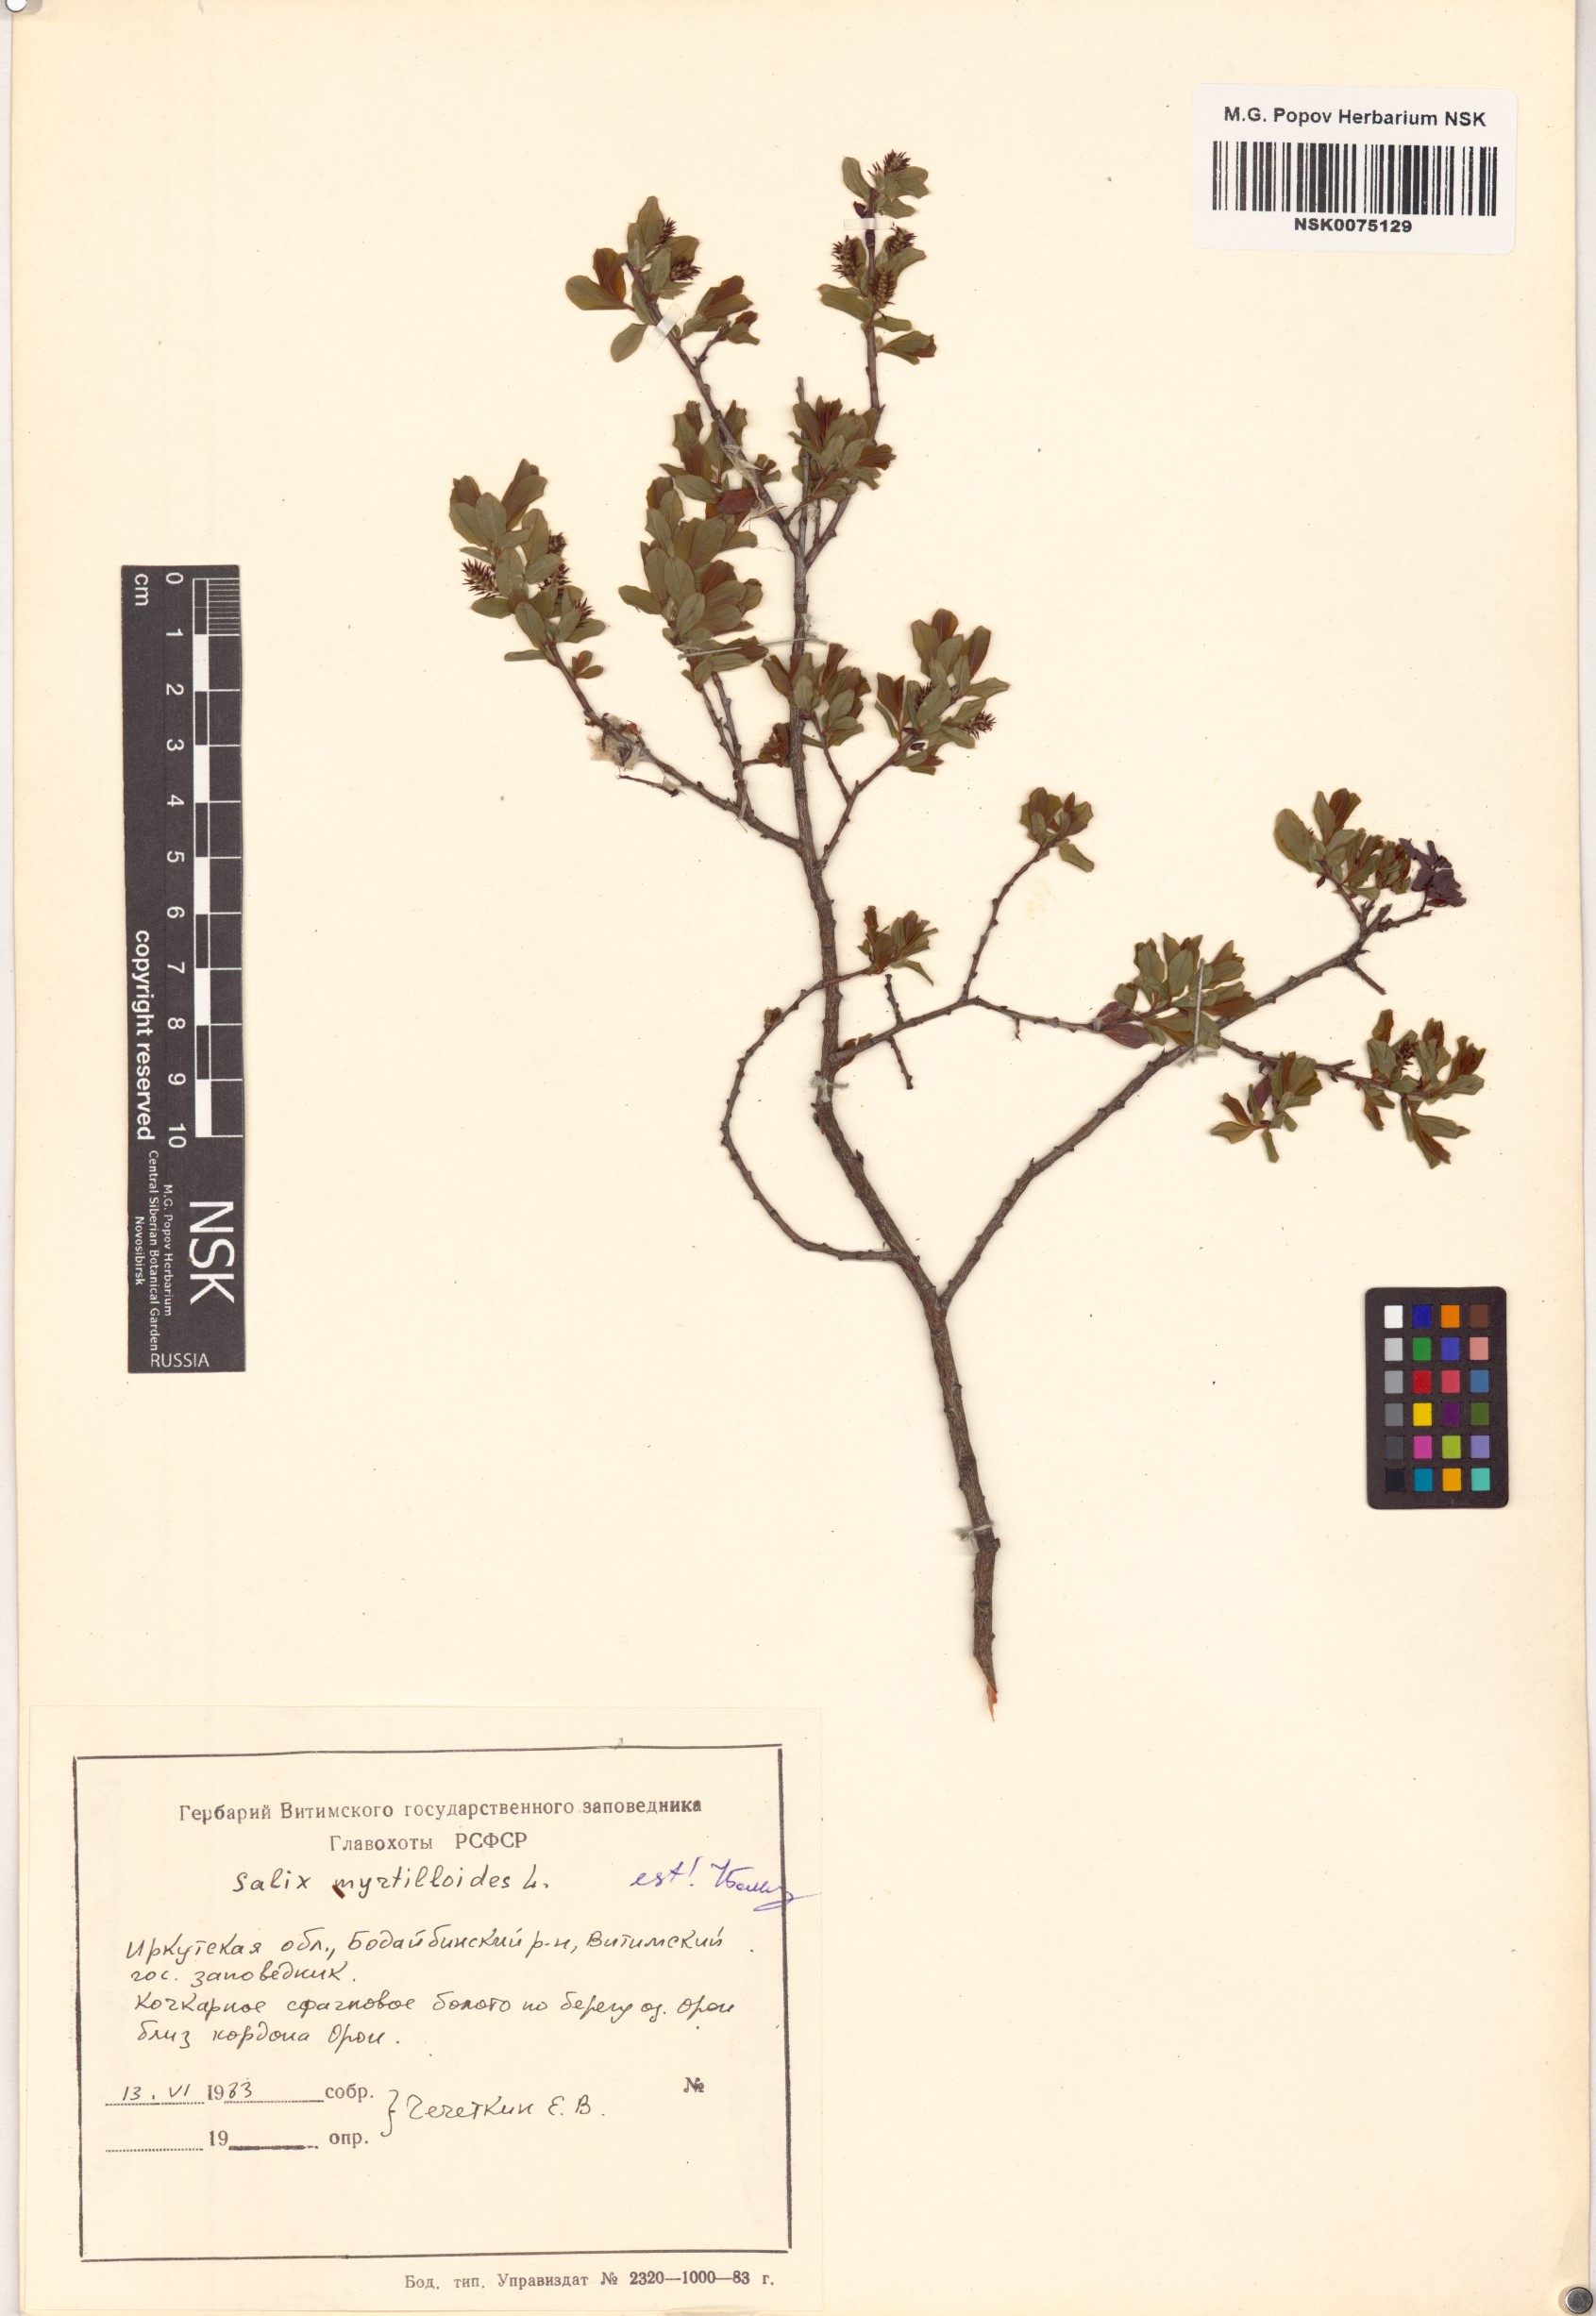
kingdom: Plantae
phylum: Tracheophyta
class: Magnoliopsida
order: Malpighiales
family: Salicaceae
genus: Salix
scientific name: Salix myrtilloides
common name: Myrtle-leaved willow
